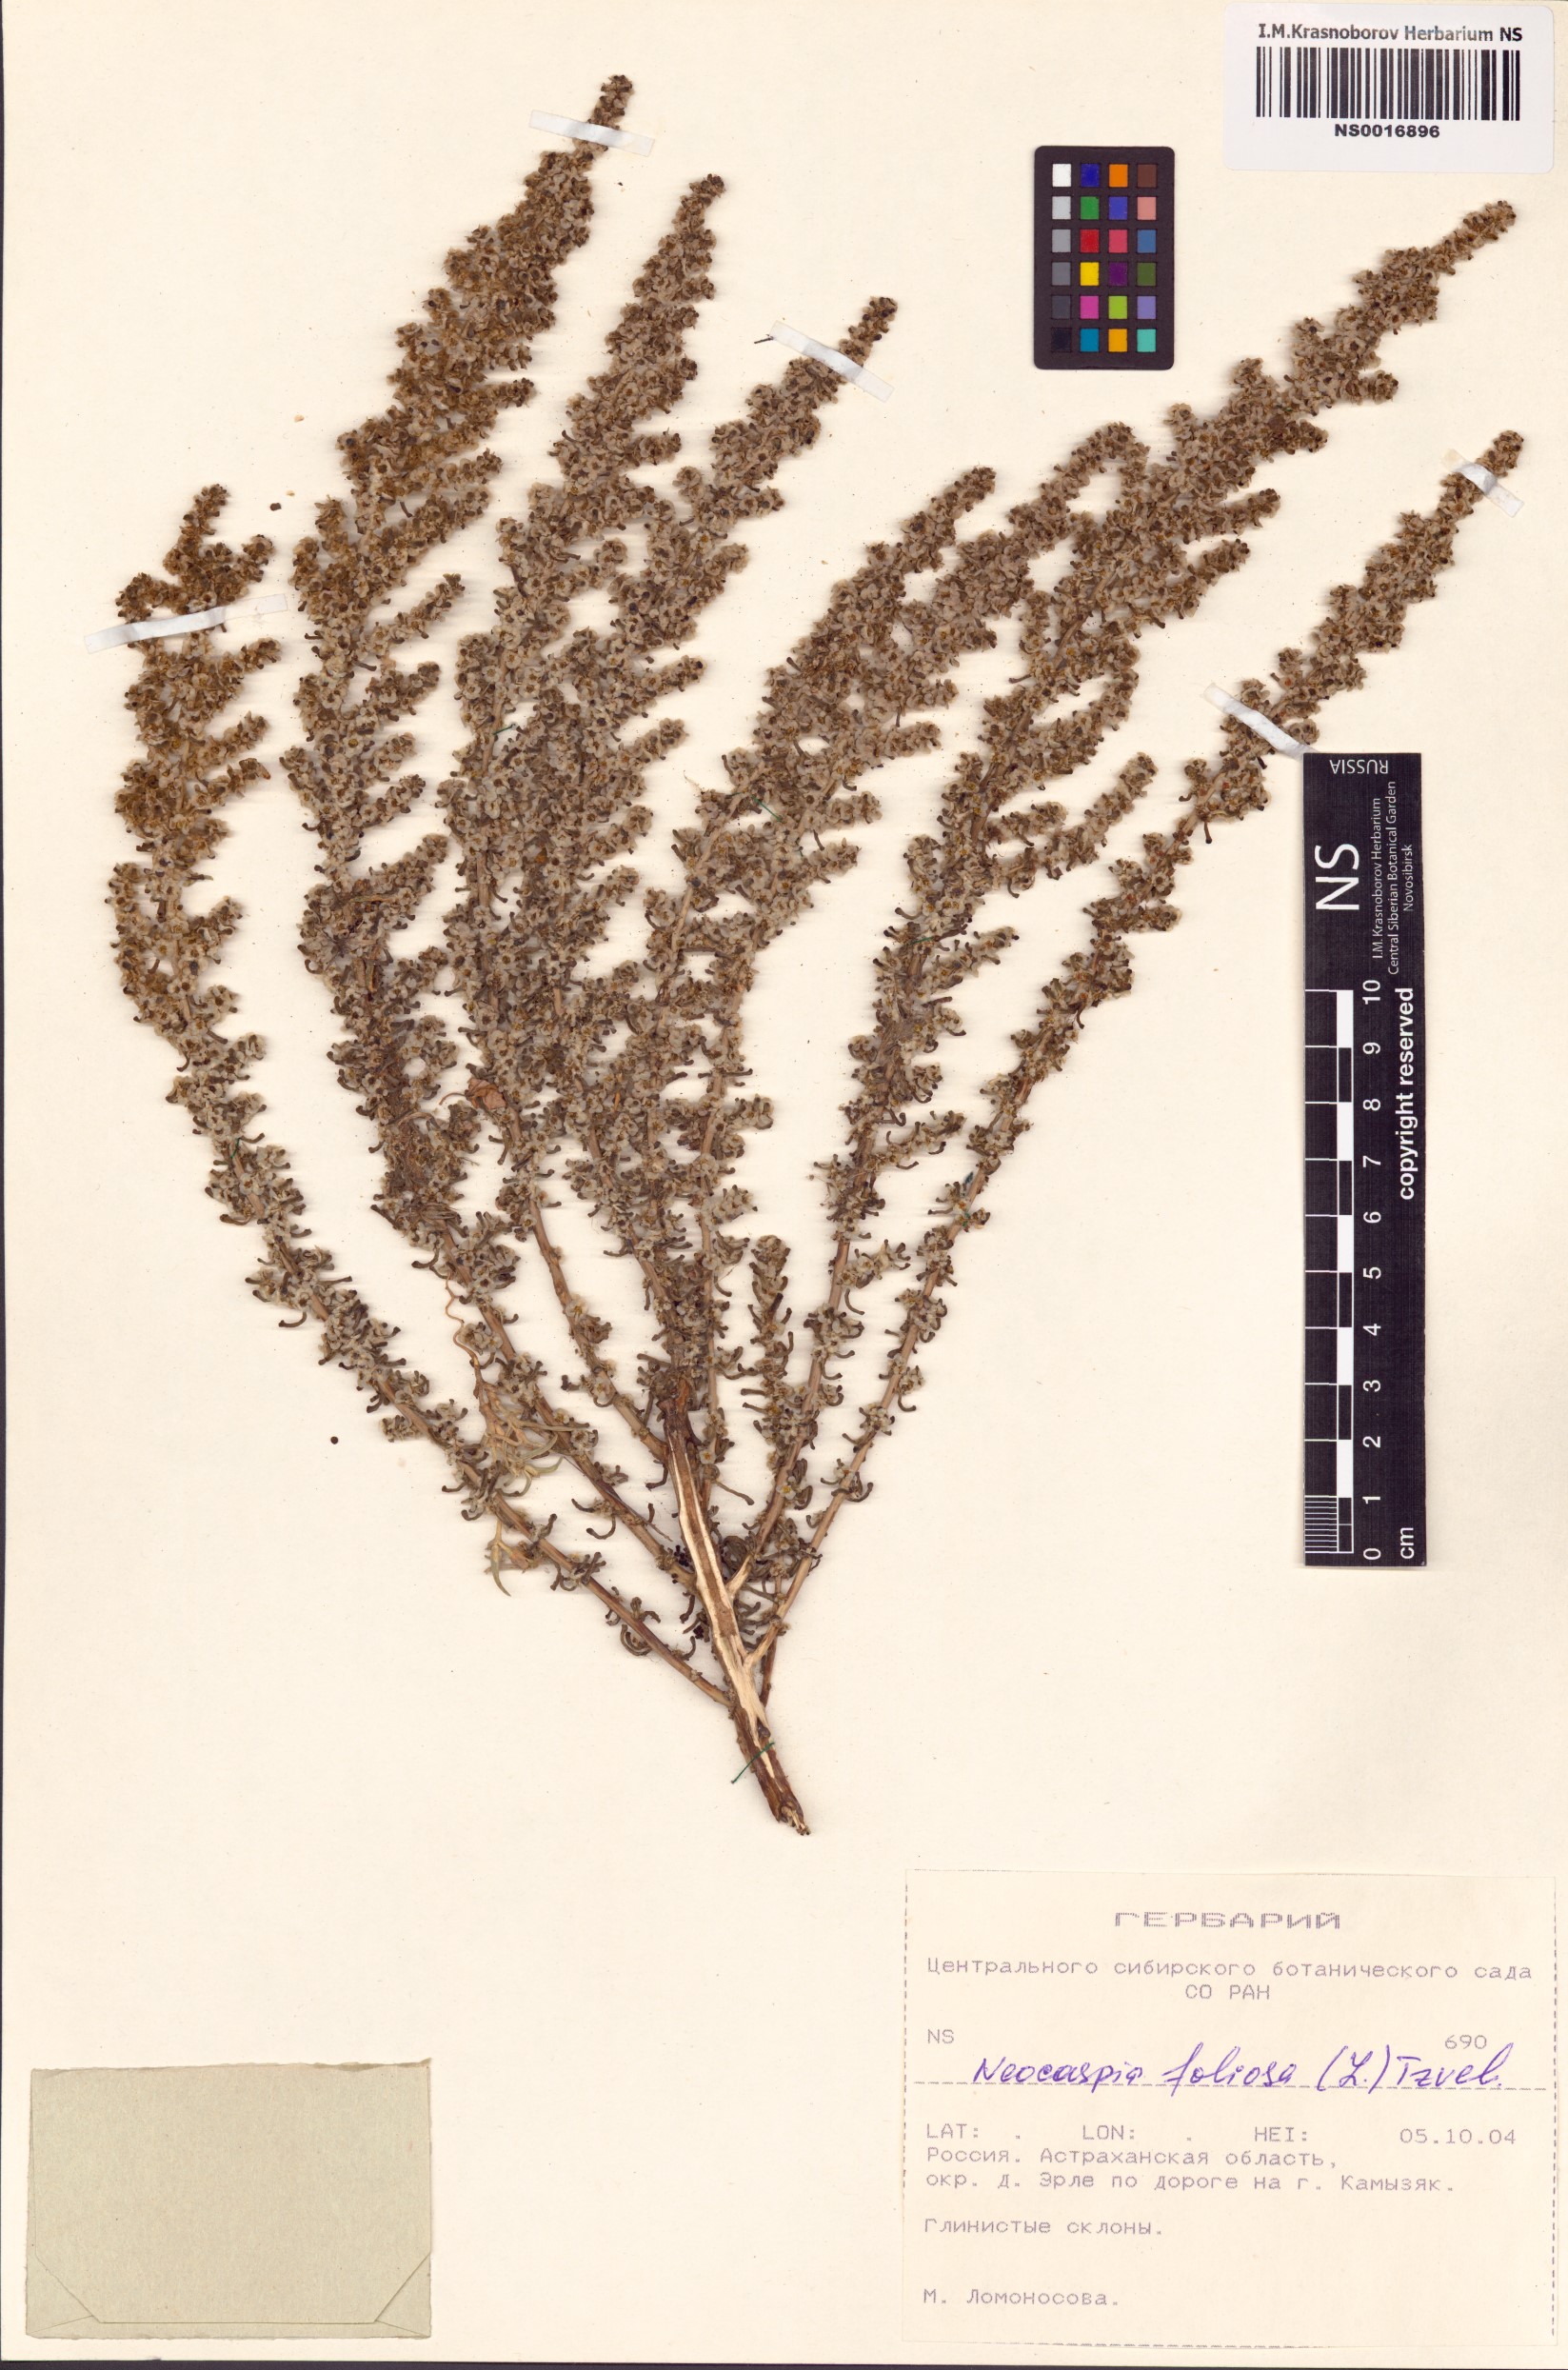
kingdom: Plantae
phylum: Tracheophyta
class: Magnoliopsida
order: Caryophyllales
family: Amaranthaceae
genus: Soda
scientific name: Soda foliosa
